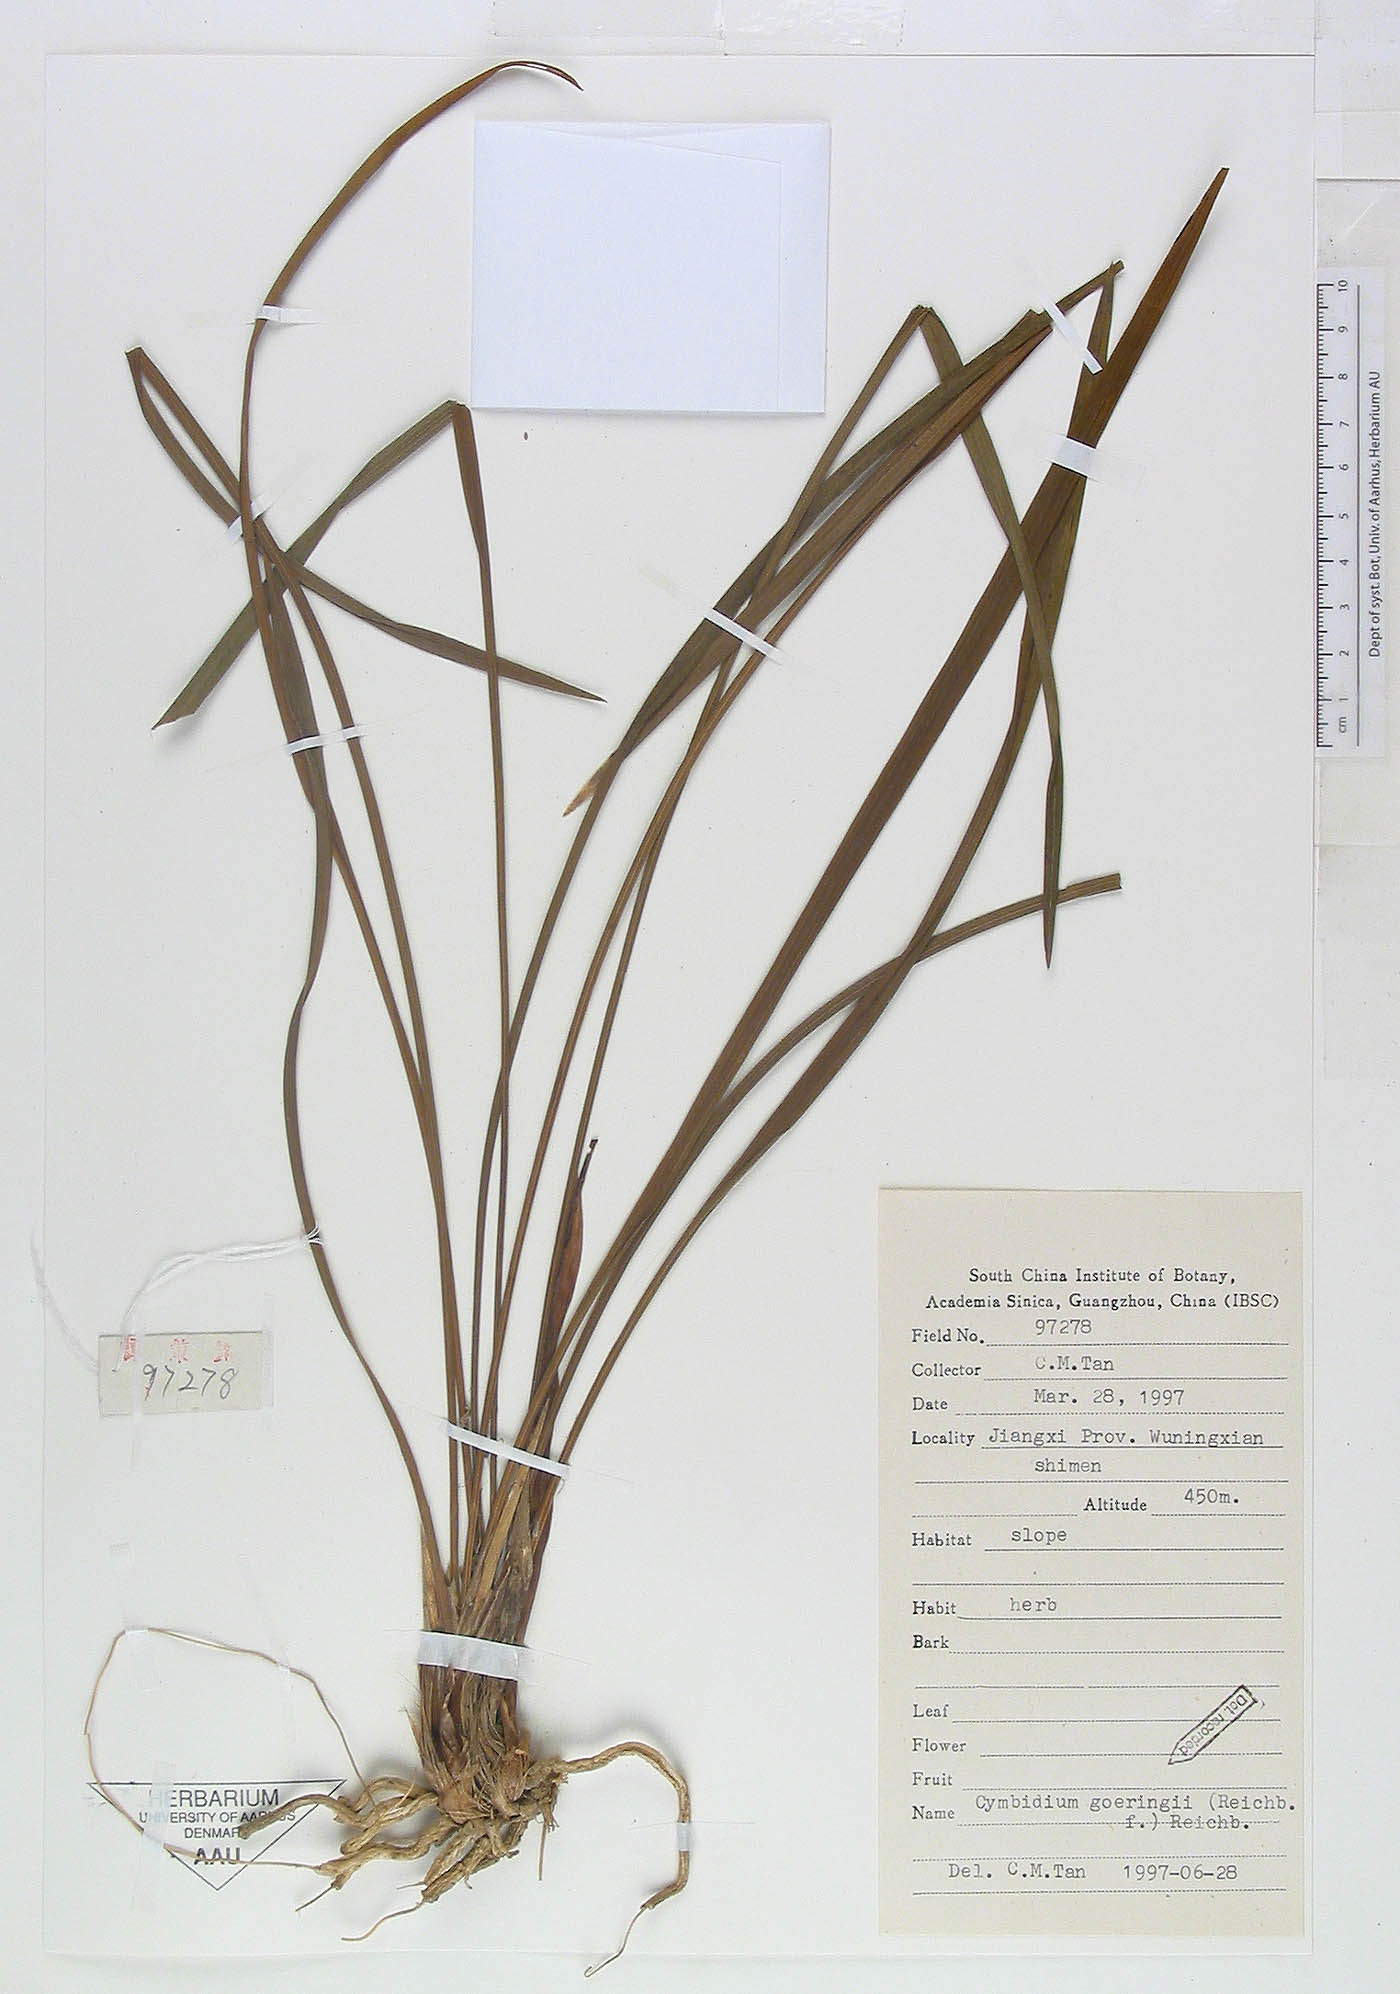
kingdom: Plantae
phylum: Tracheophyta
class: Liliopsida
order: Asparagales
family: Orchidaceae
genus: Cymbidium
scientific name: Cymbidium goeringii
